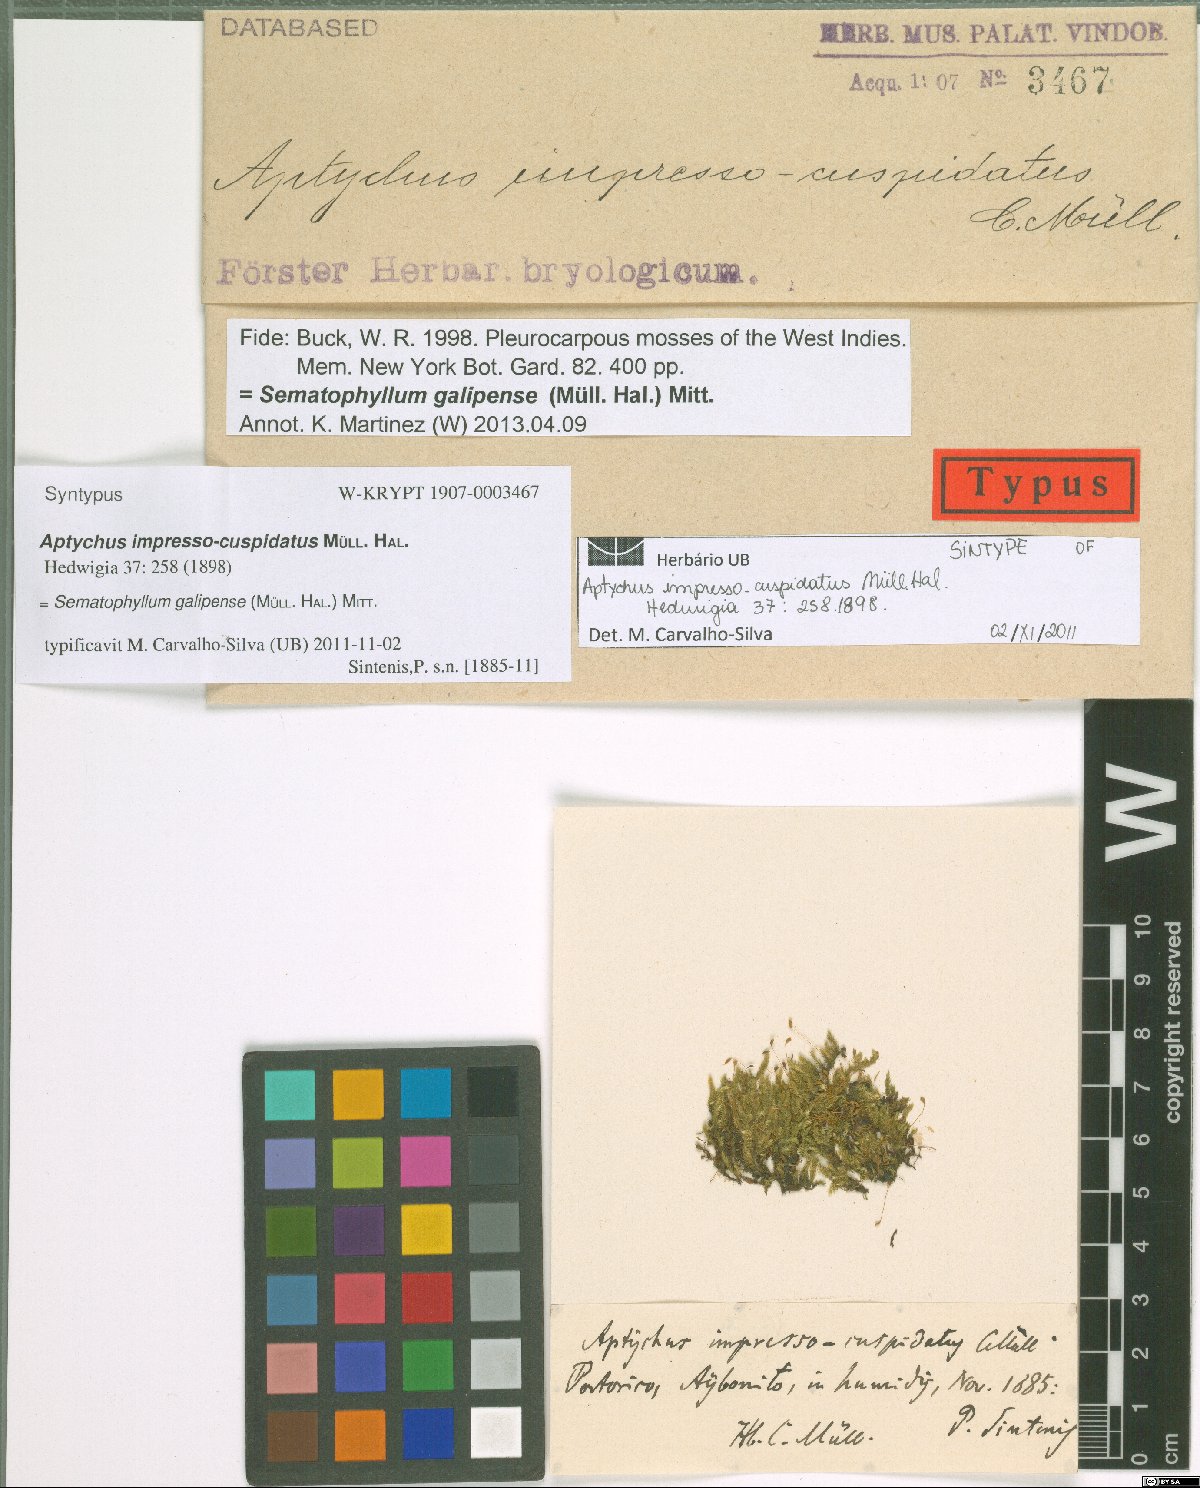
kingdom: Plantae
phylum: Bryophyta
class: Bryopsida
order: Hypnales
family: Sematophyllaceae
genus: Jirivanaea
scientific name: Jirivanaea galipensis
